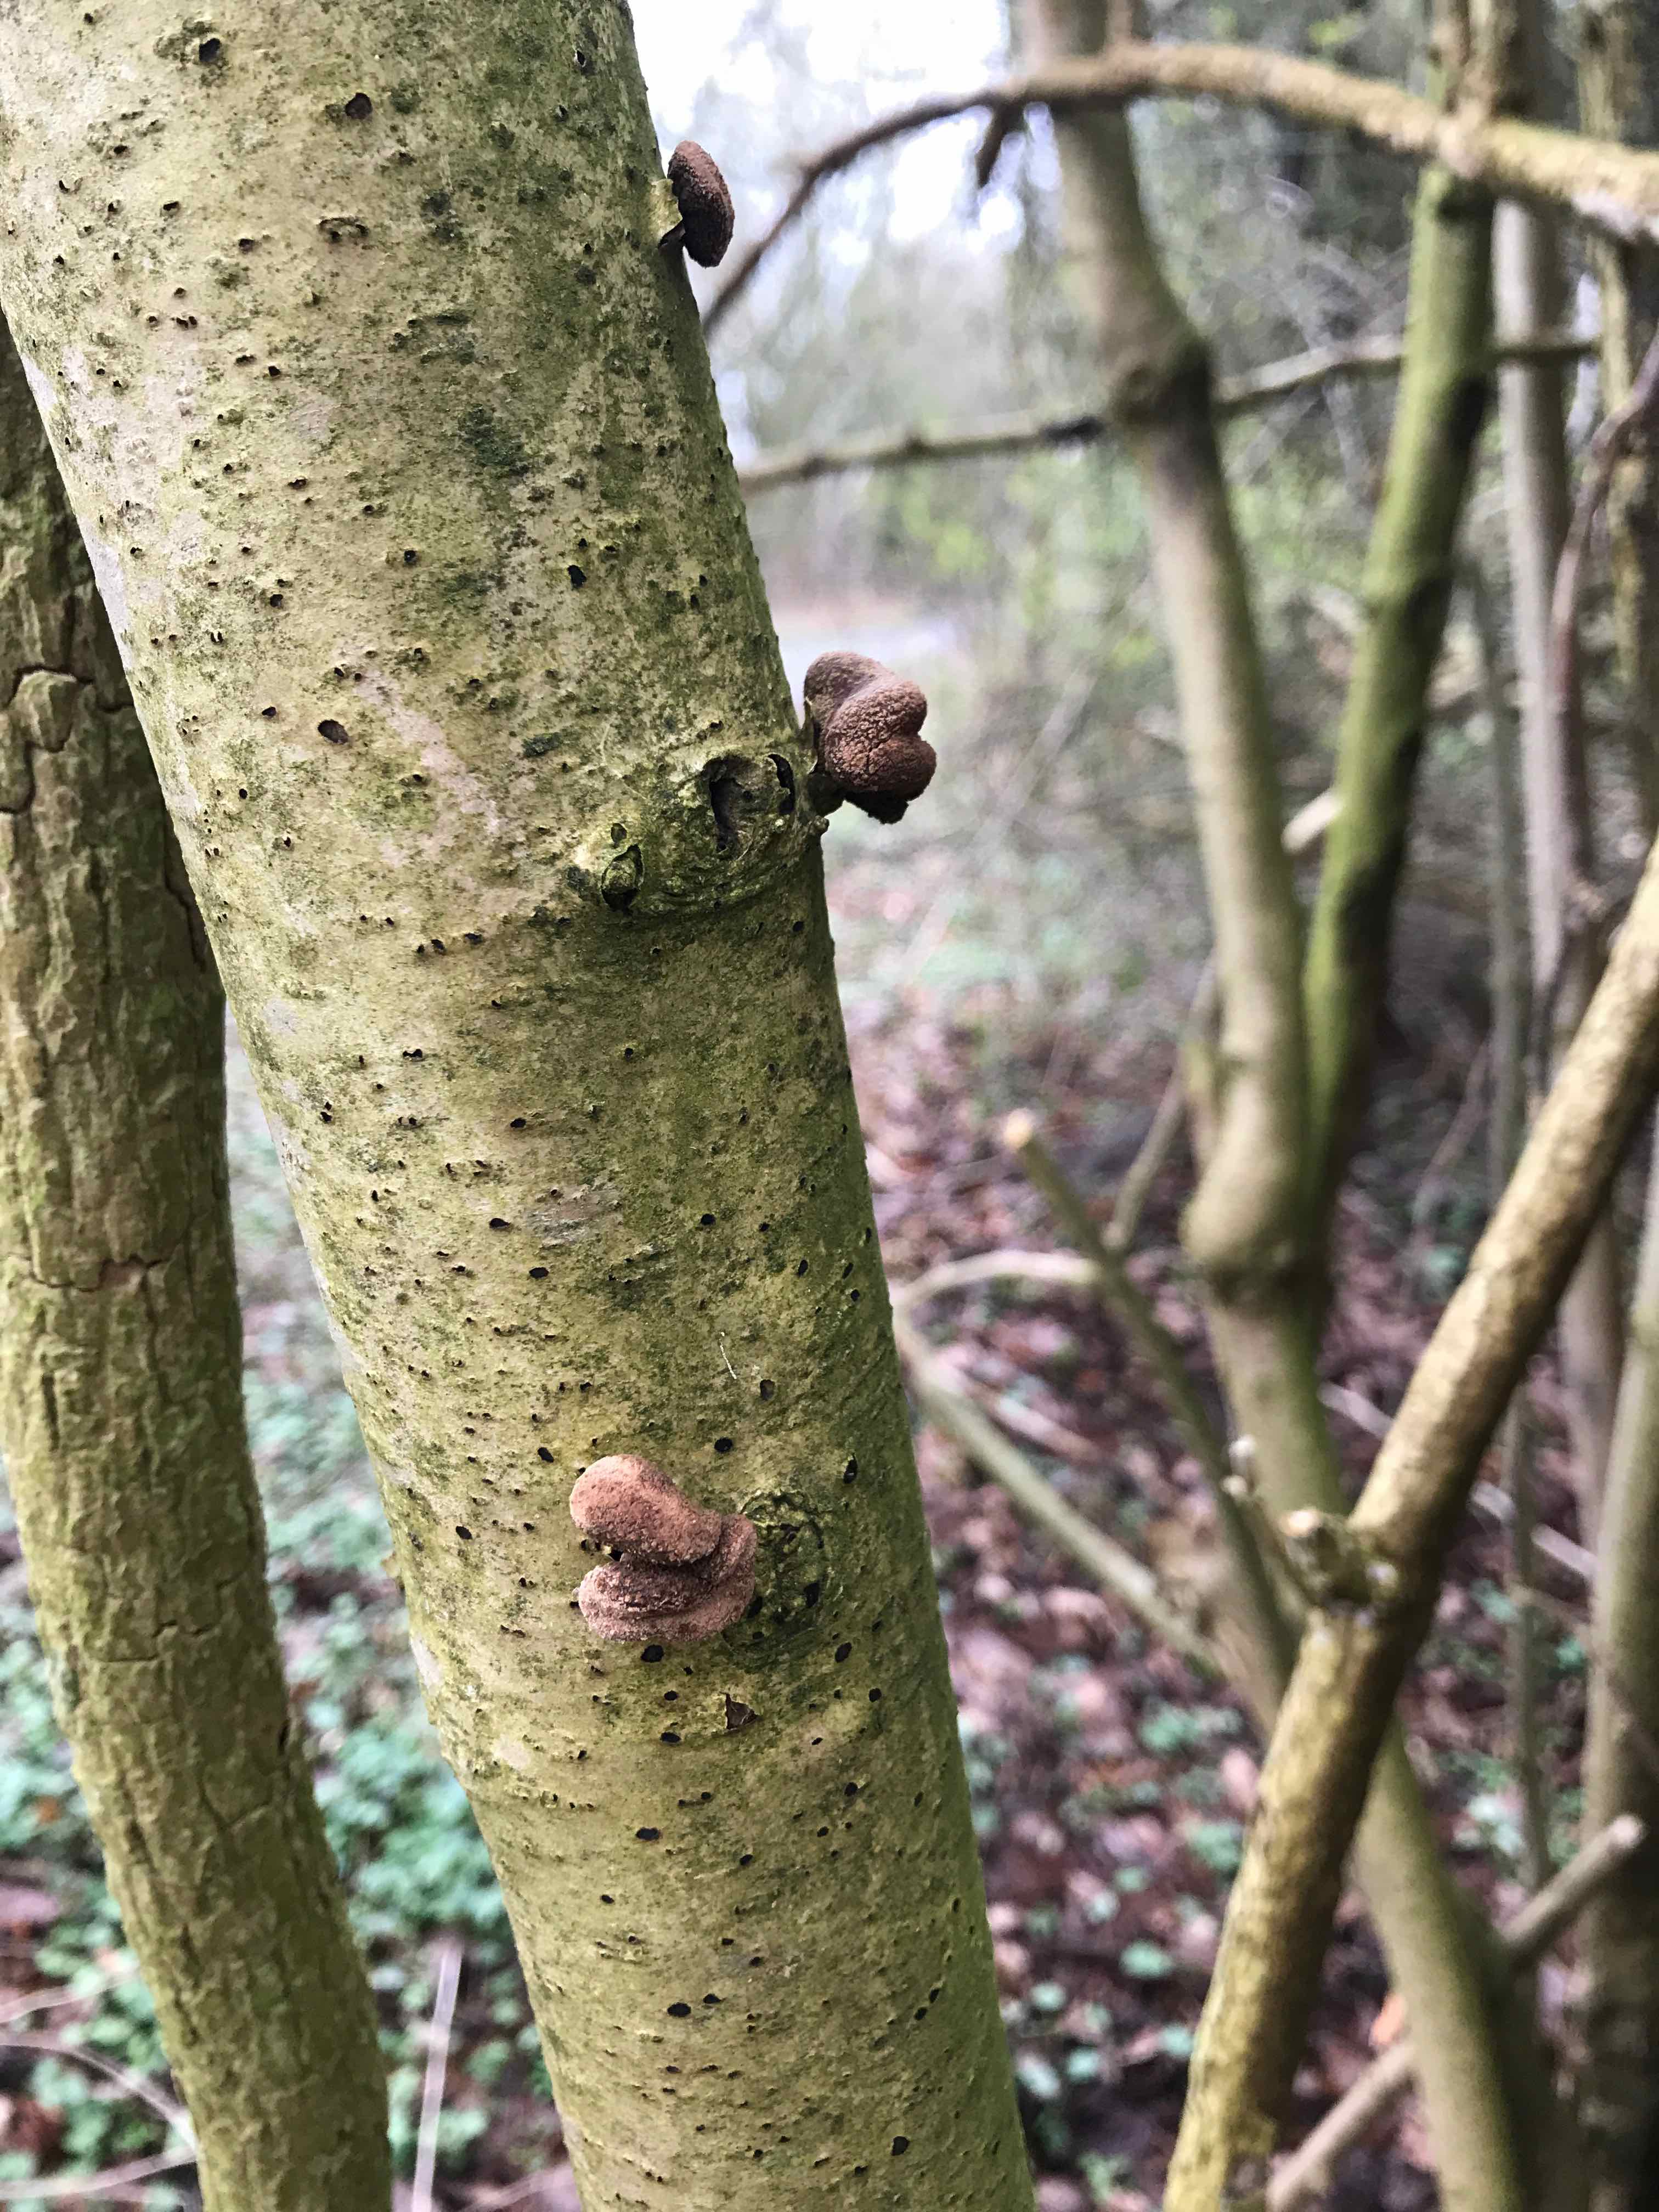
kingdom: Fungi
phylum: Ascomycota
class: Leotiomycetes
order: Helotiales
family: Cenangiaceae
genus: Encoelia
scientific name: Encoelia furfuracea
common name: hassel-læderskive
